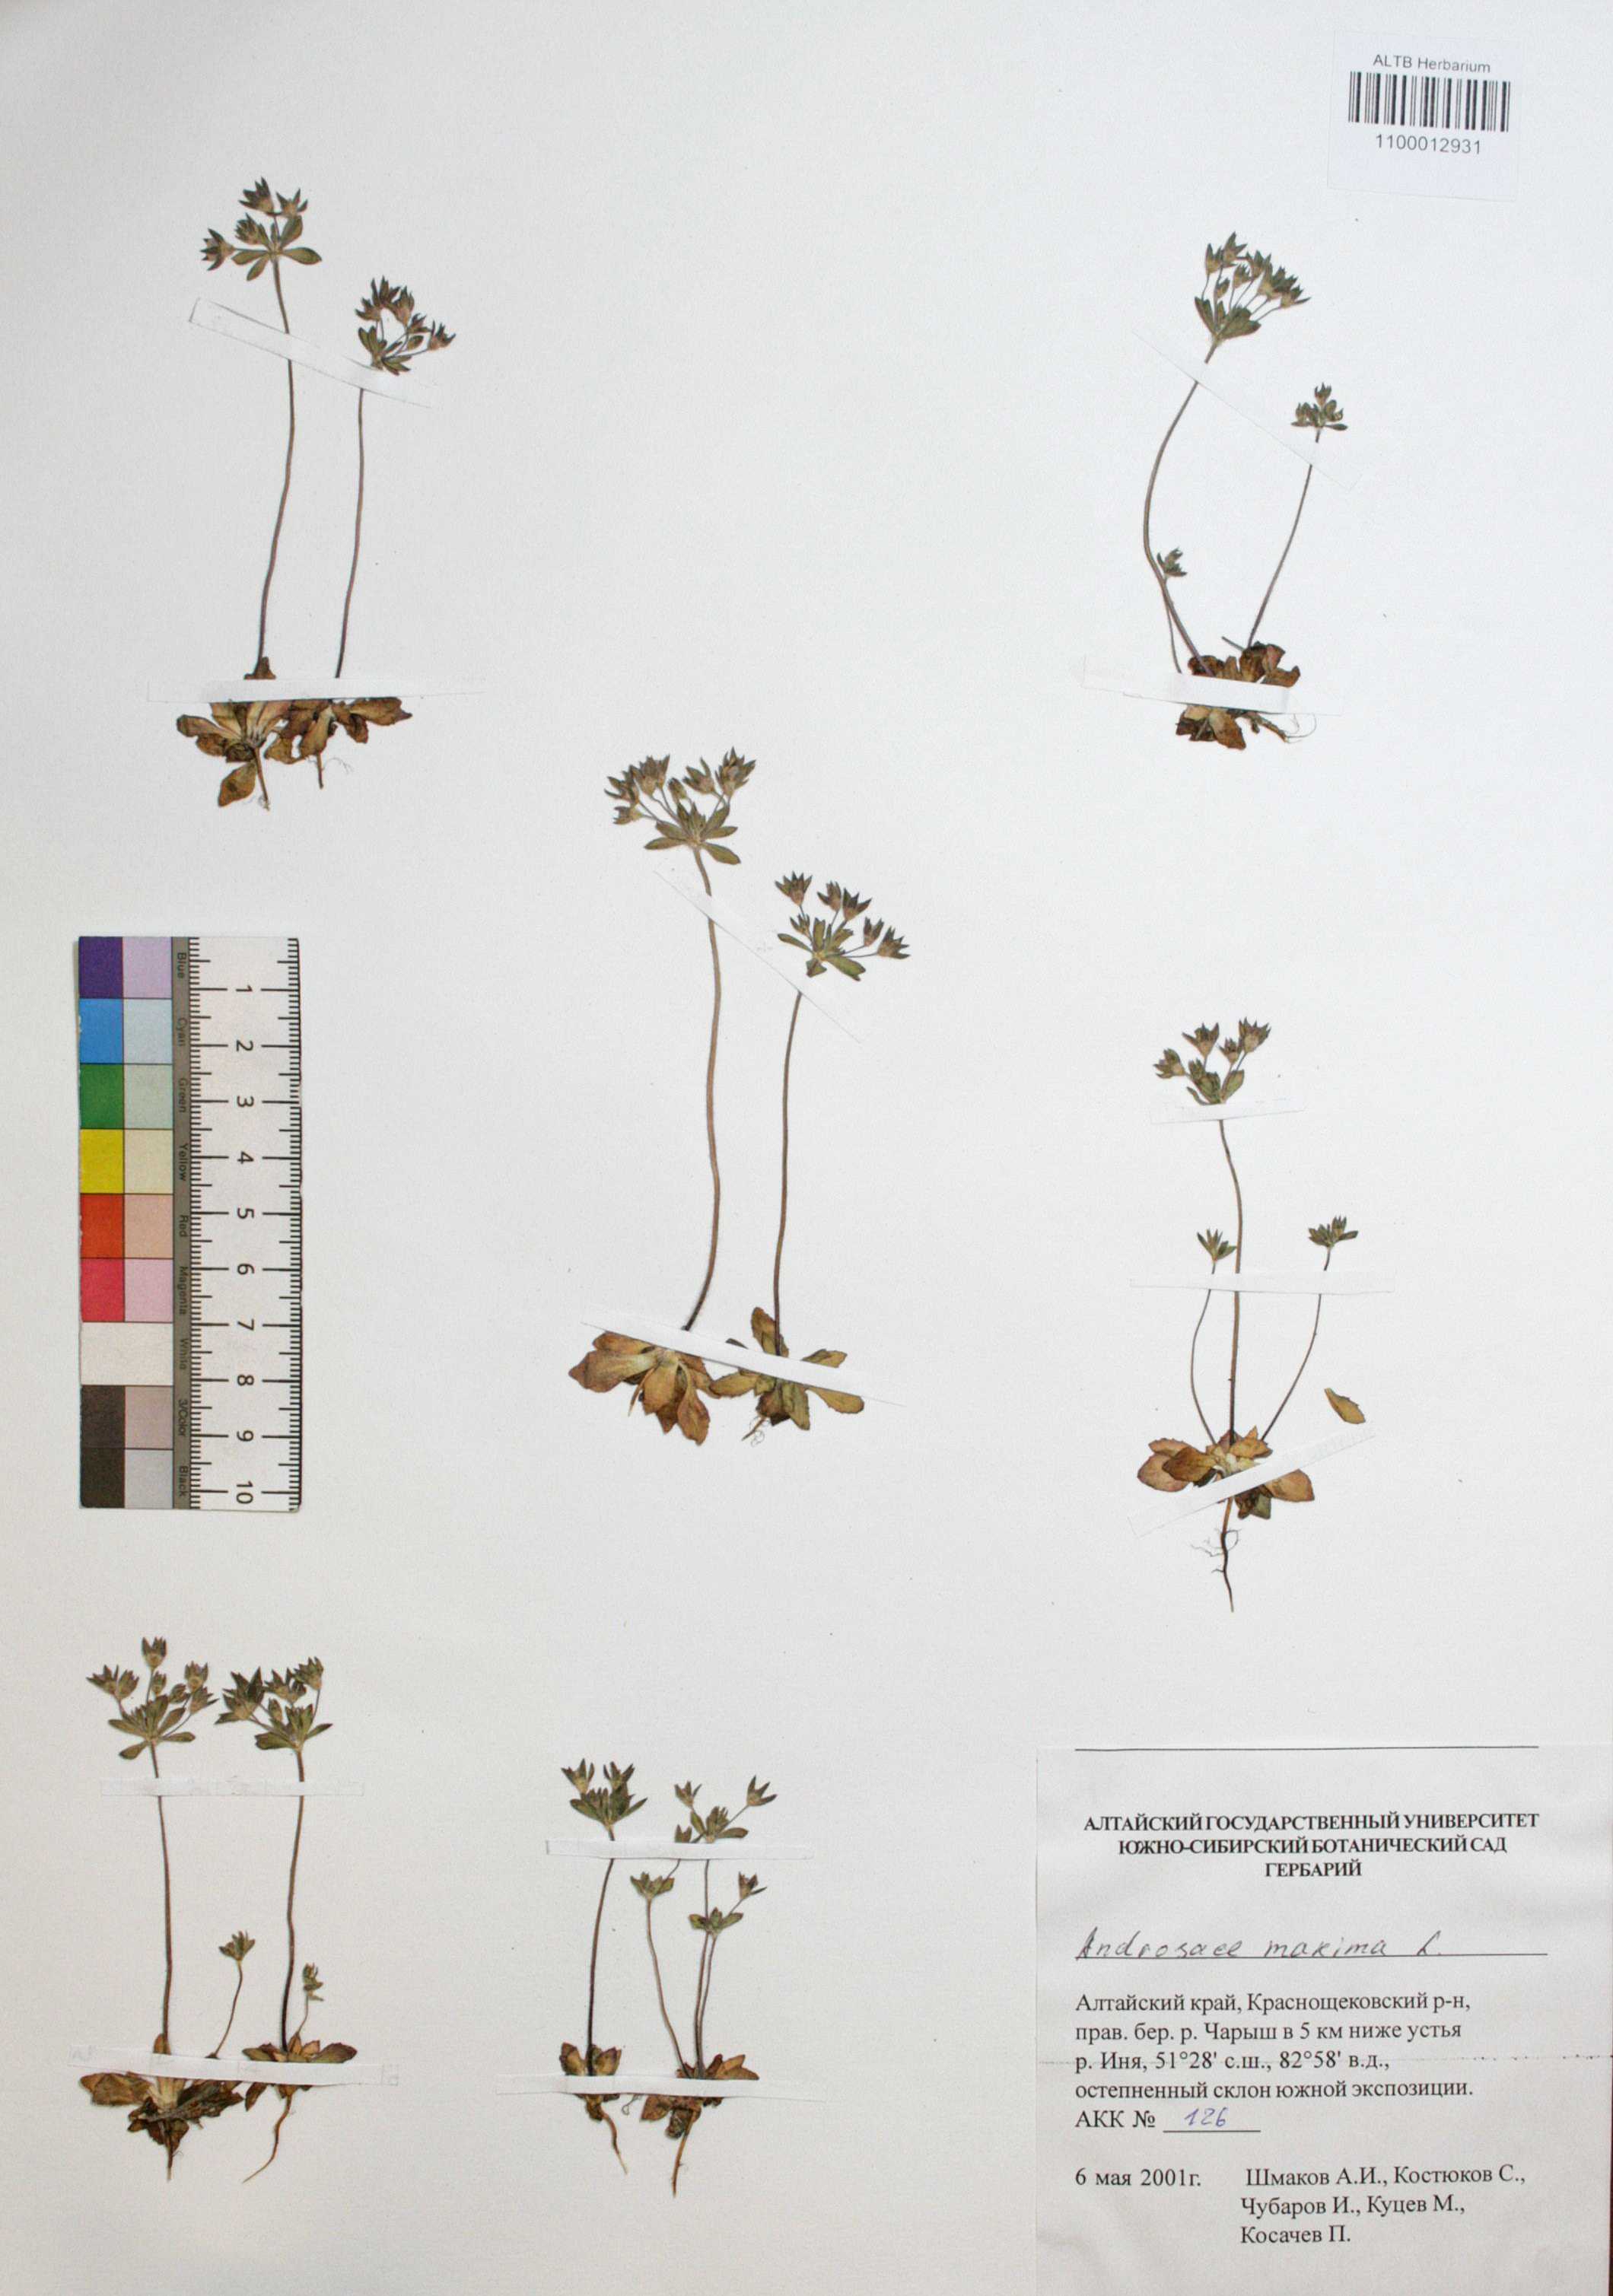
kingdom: Plantae
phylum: Tracheophyta
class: Magnoliopsida
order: Ericales
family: Primulaceae
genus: Androsace
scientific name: Androsace maxima
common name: Annual androsace
